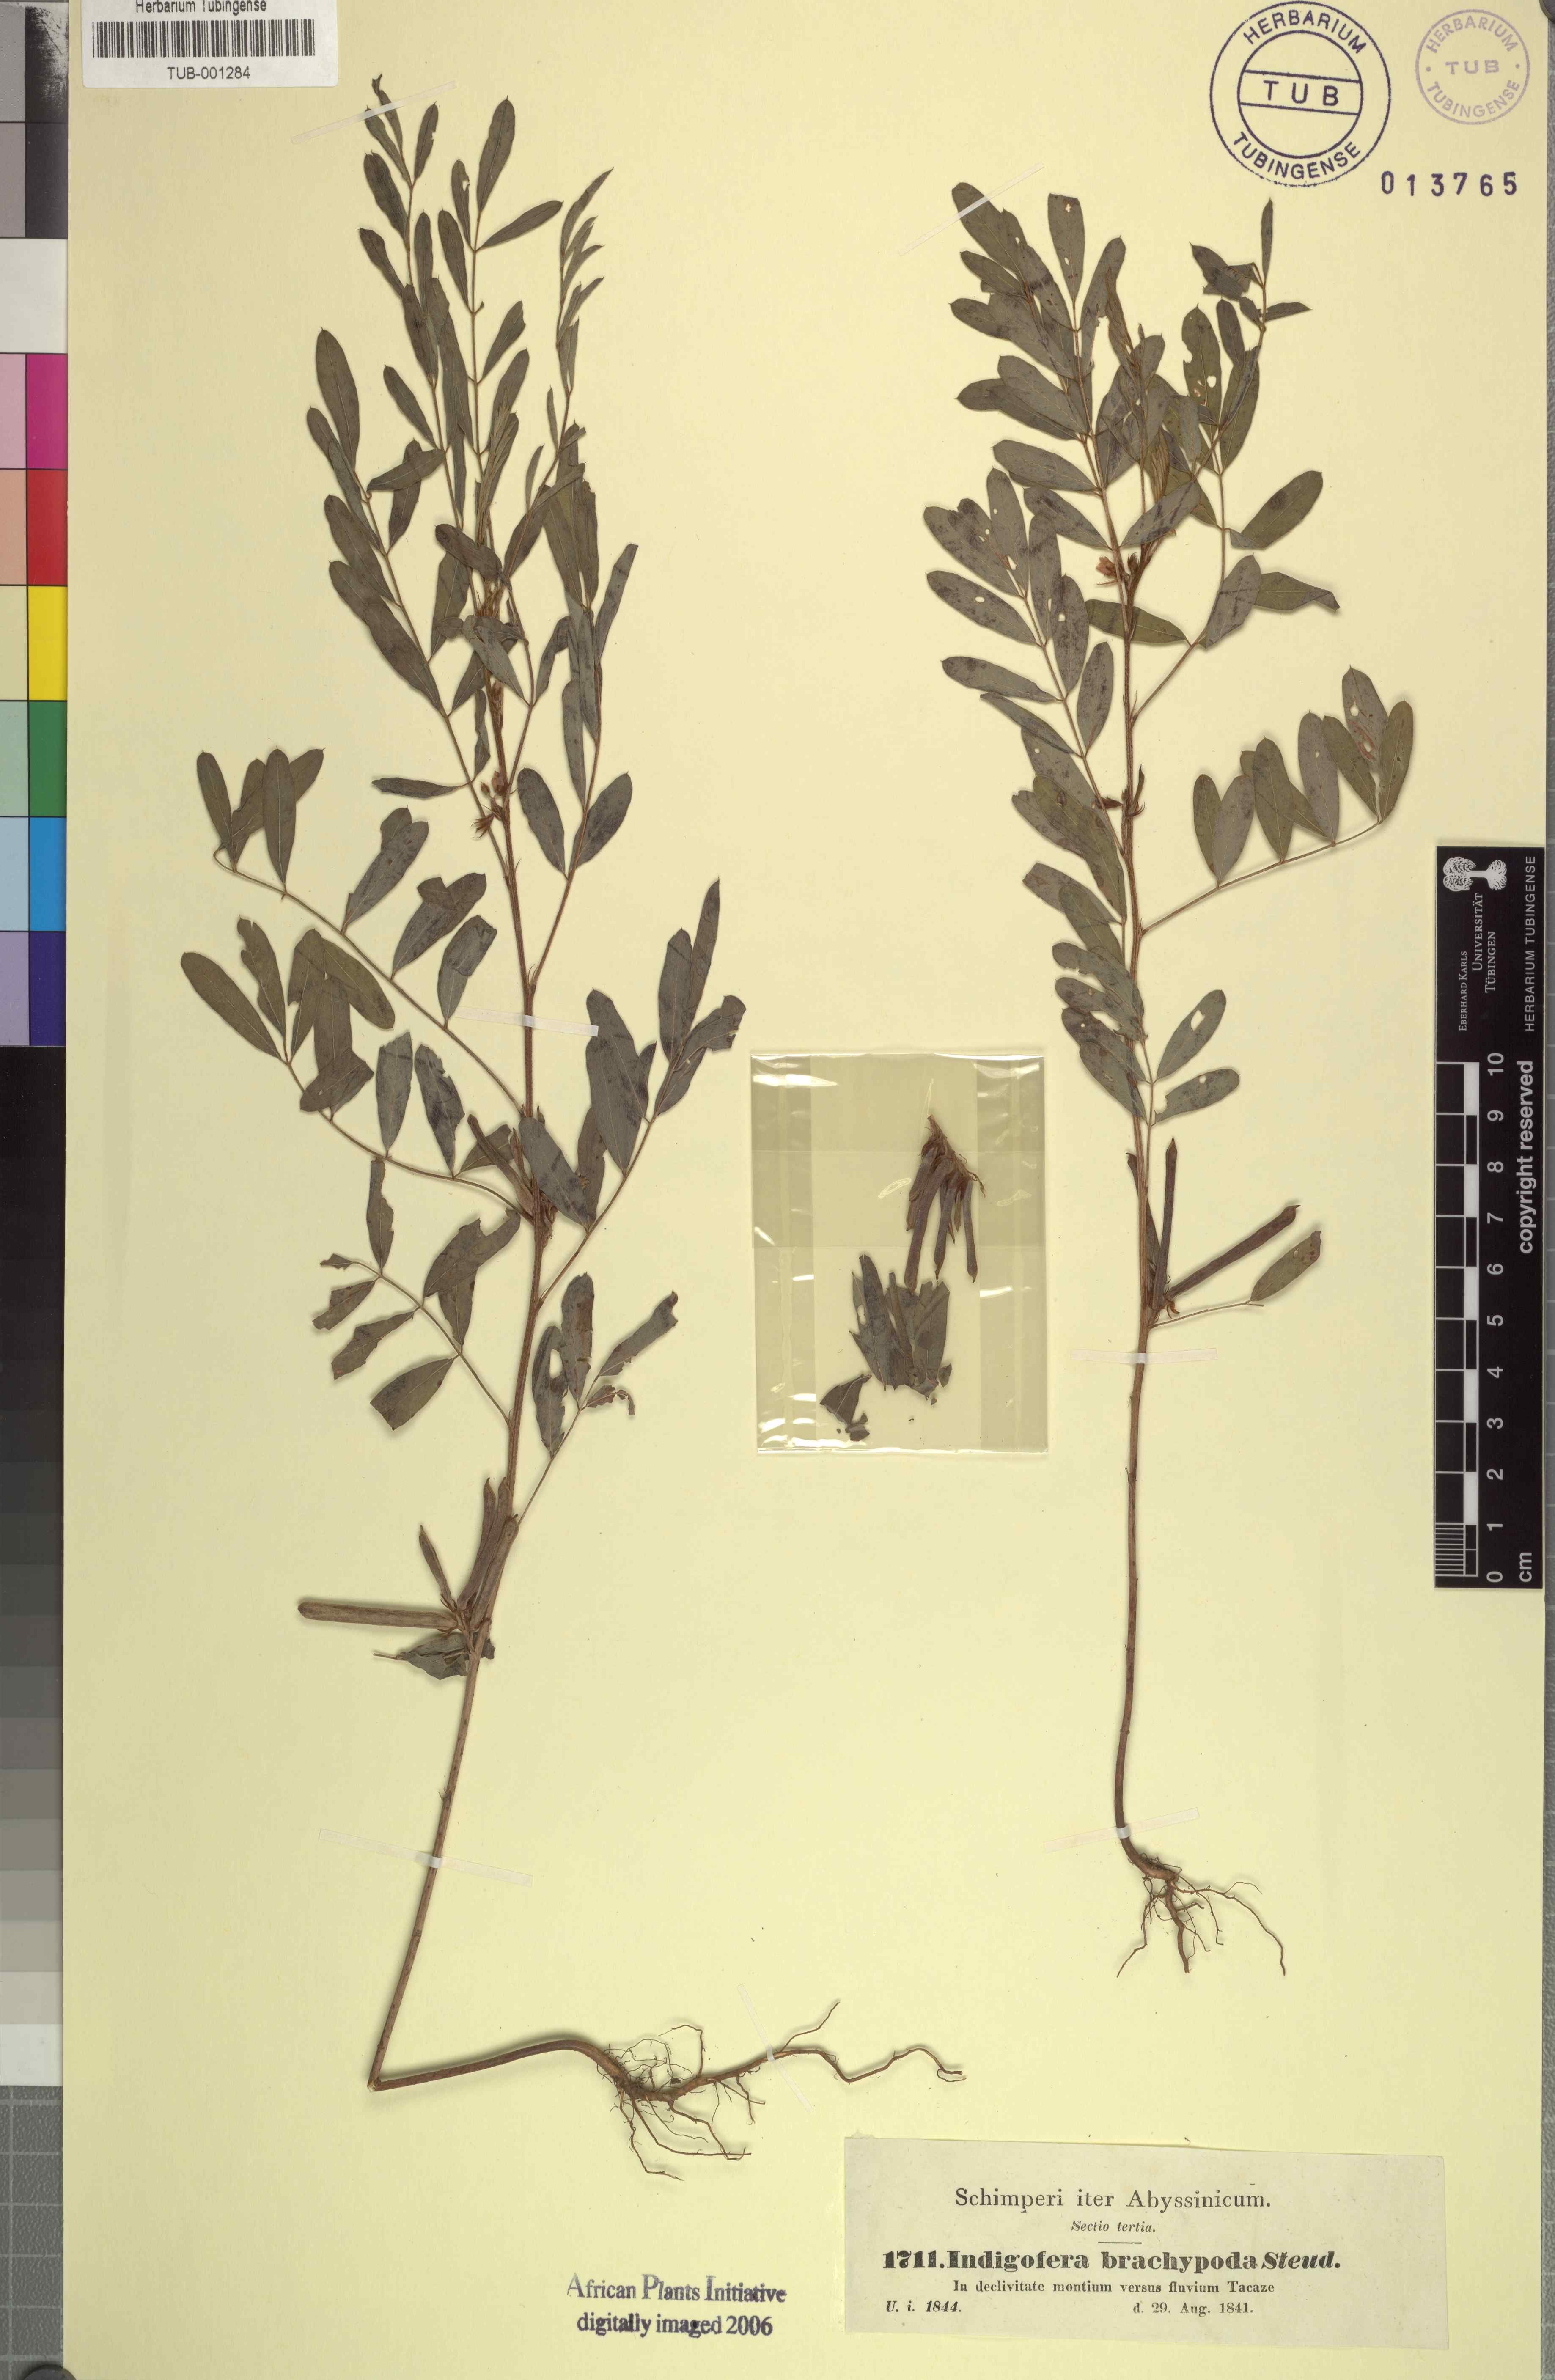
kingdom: Plantae
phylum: Tracheophyta
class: Magnoliopsida
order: Fabales
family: Fabaceae
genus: Indigofera
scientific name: Indigofera stenophylla
